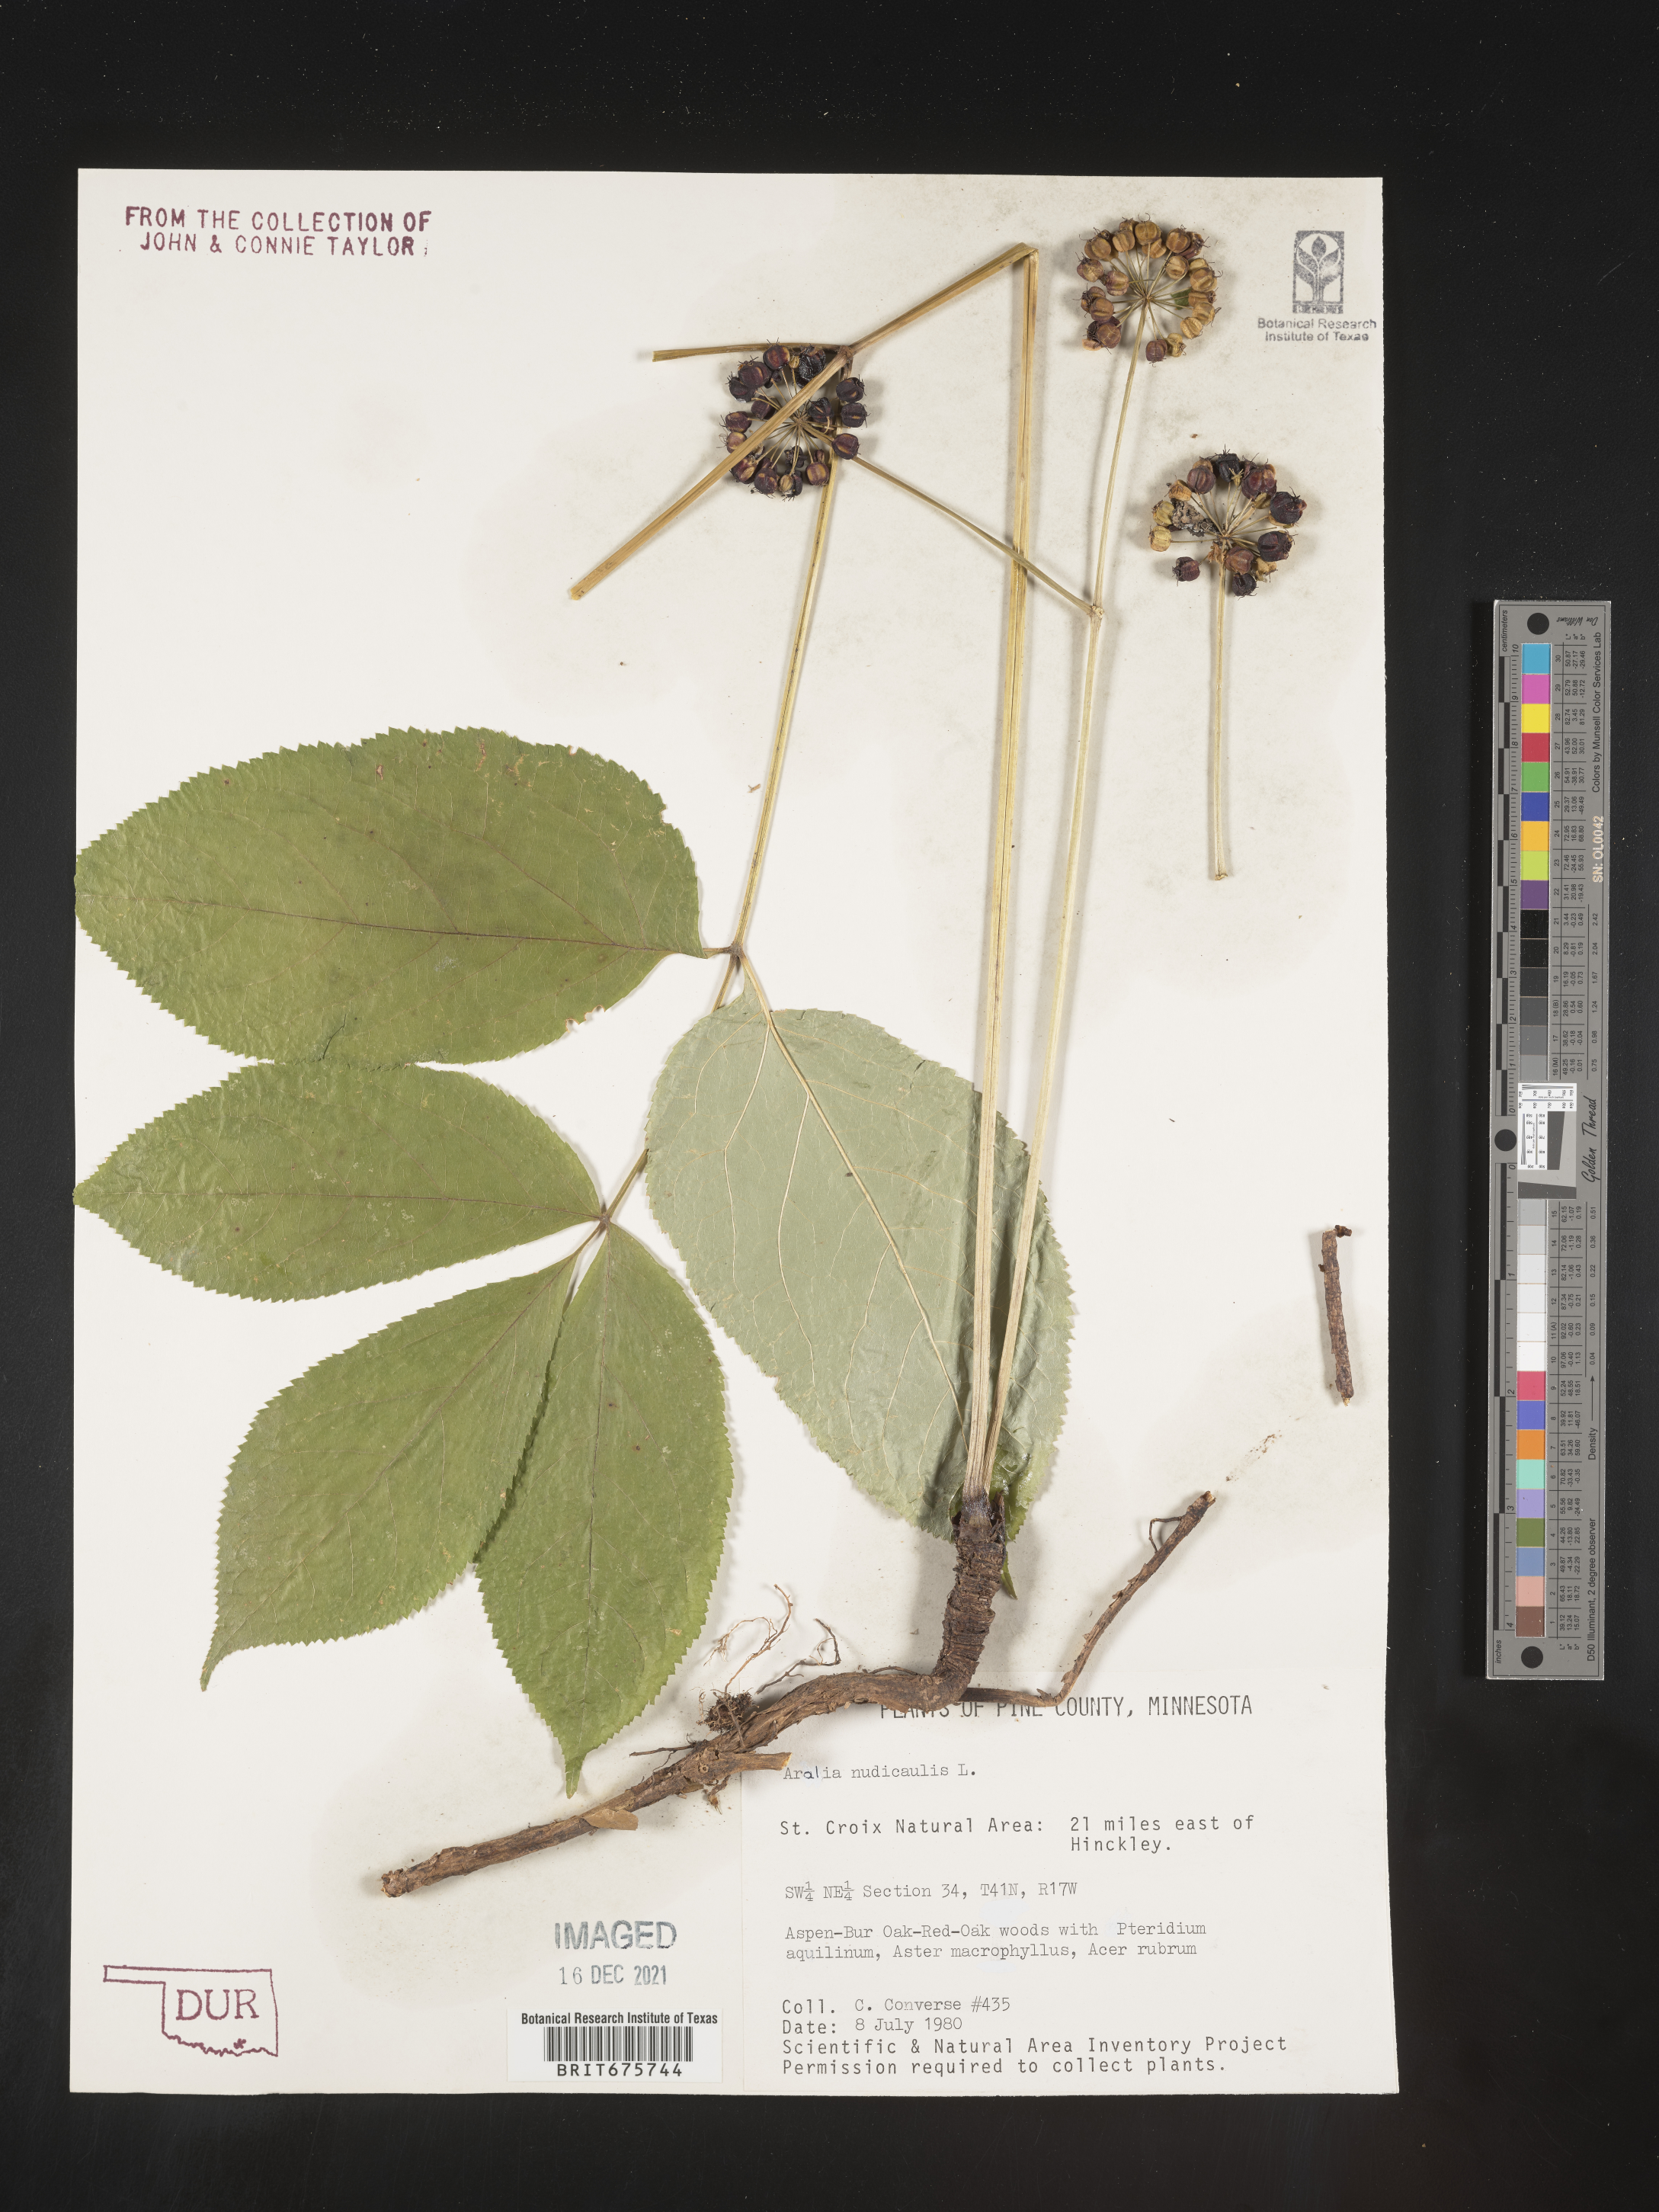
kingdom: Plantae
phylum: Tracheophyta
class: Magnoliopsida
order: Apiales
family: Araliaceae
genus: Aralia
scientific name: Aralia nudicaulis
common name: Wild sarsaparilla
